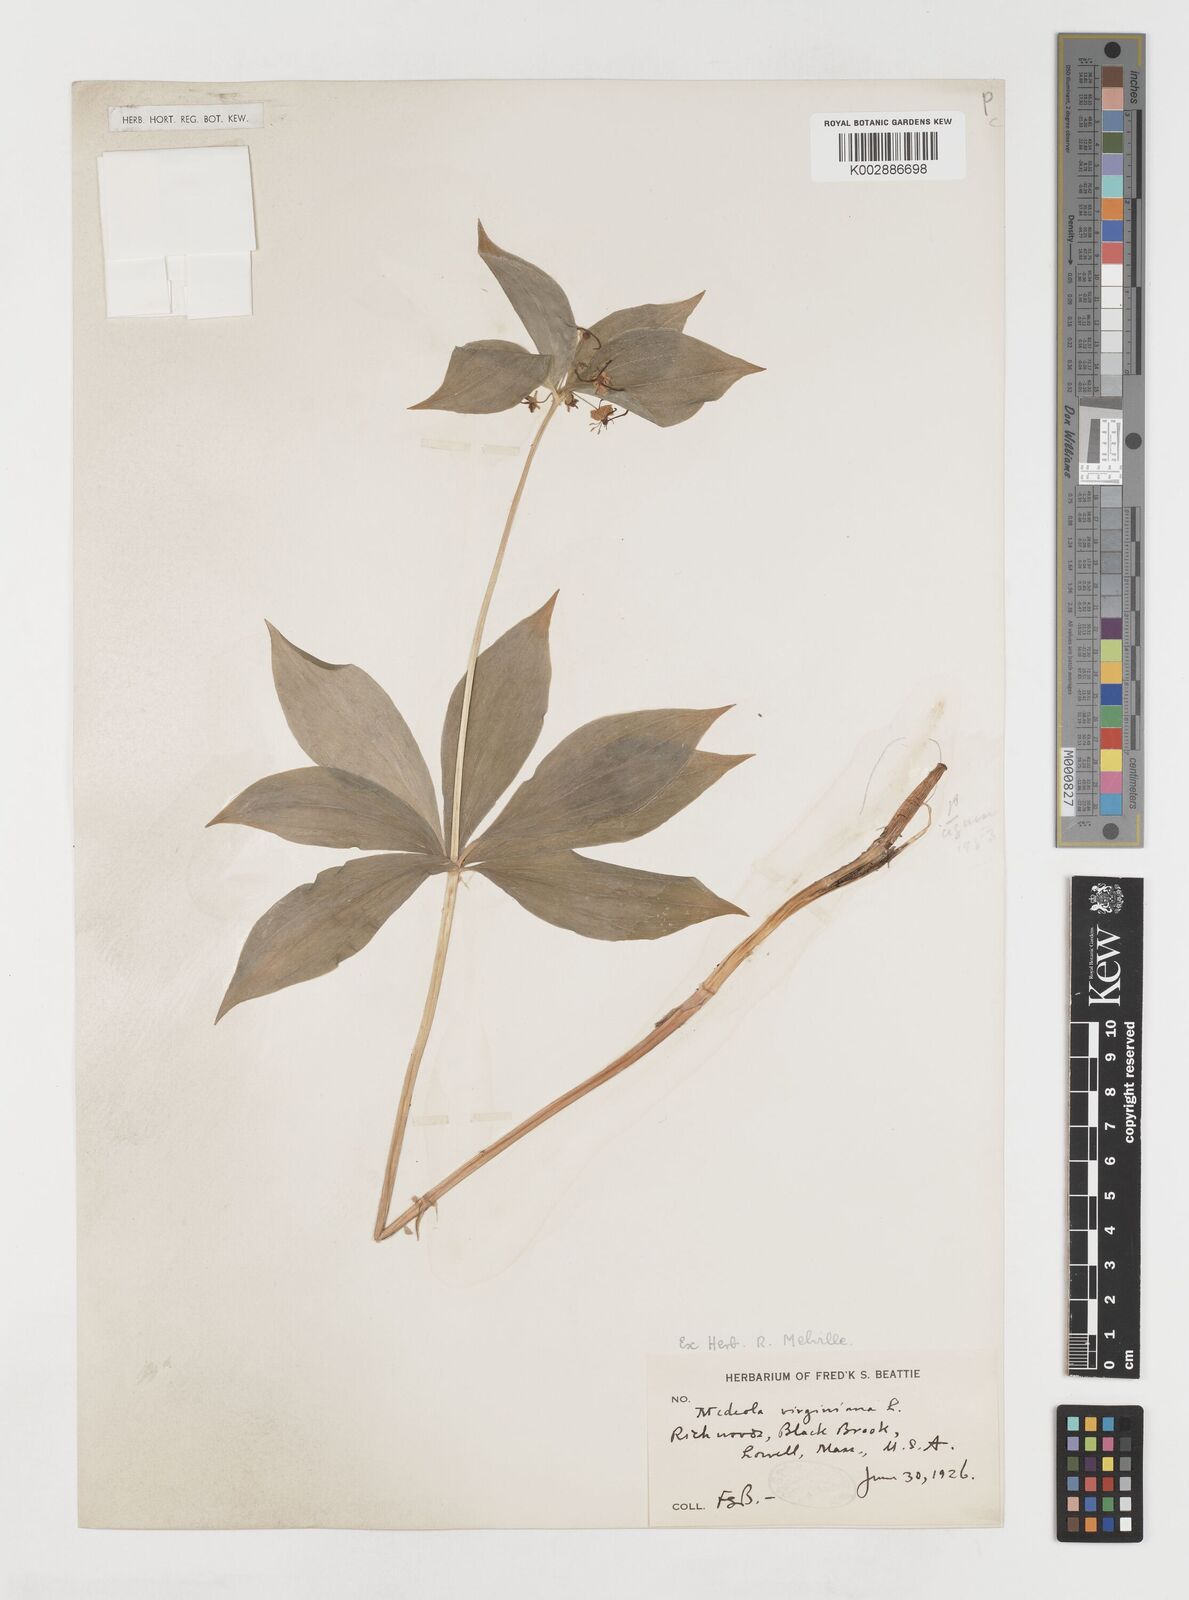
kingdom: Plantae
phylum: Tracheophyta
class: Liliopsida
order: Liliales
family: Liliaceae
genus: Medeola
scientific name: Medeola virginiana
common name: Indian cucumber-root
